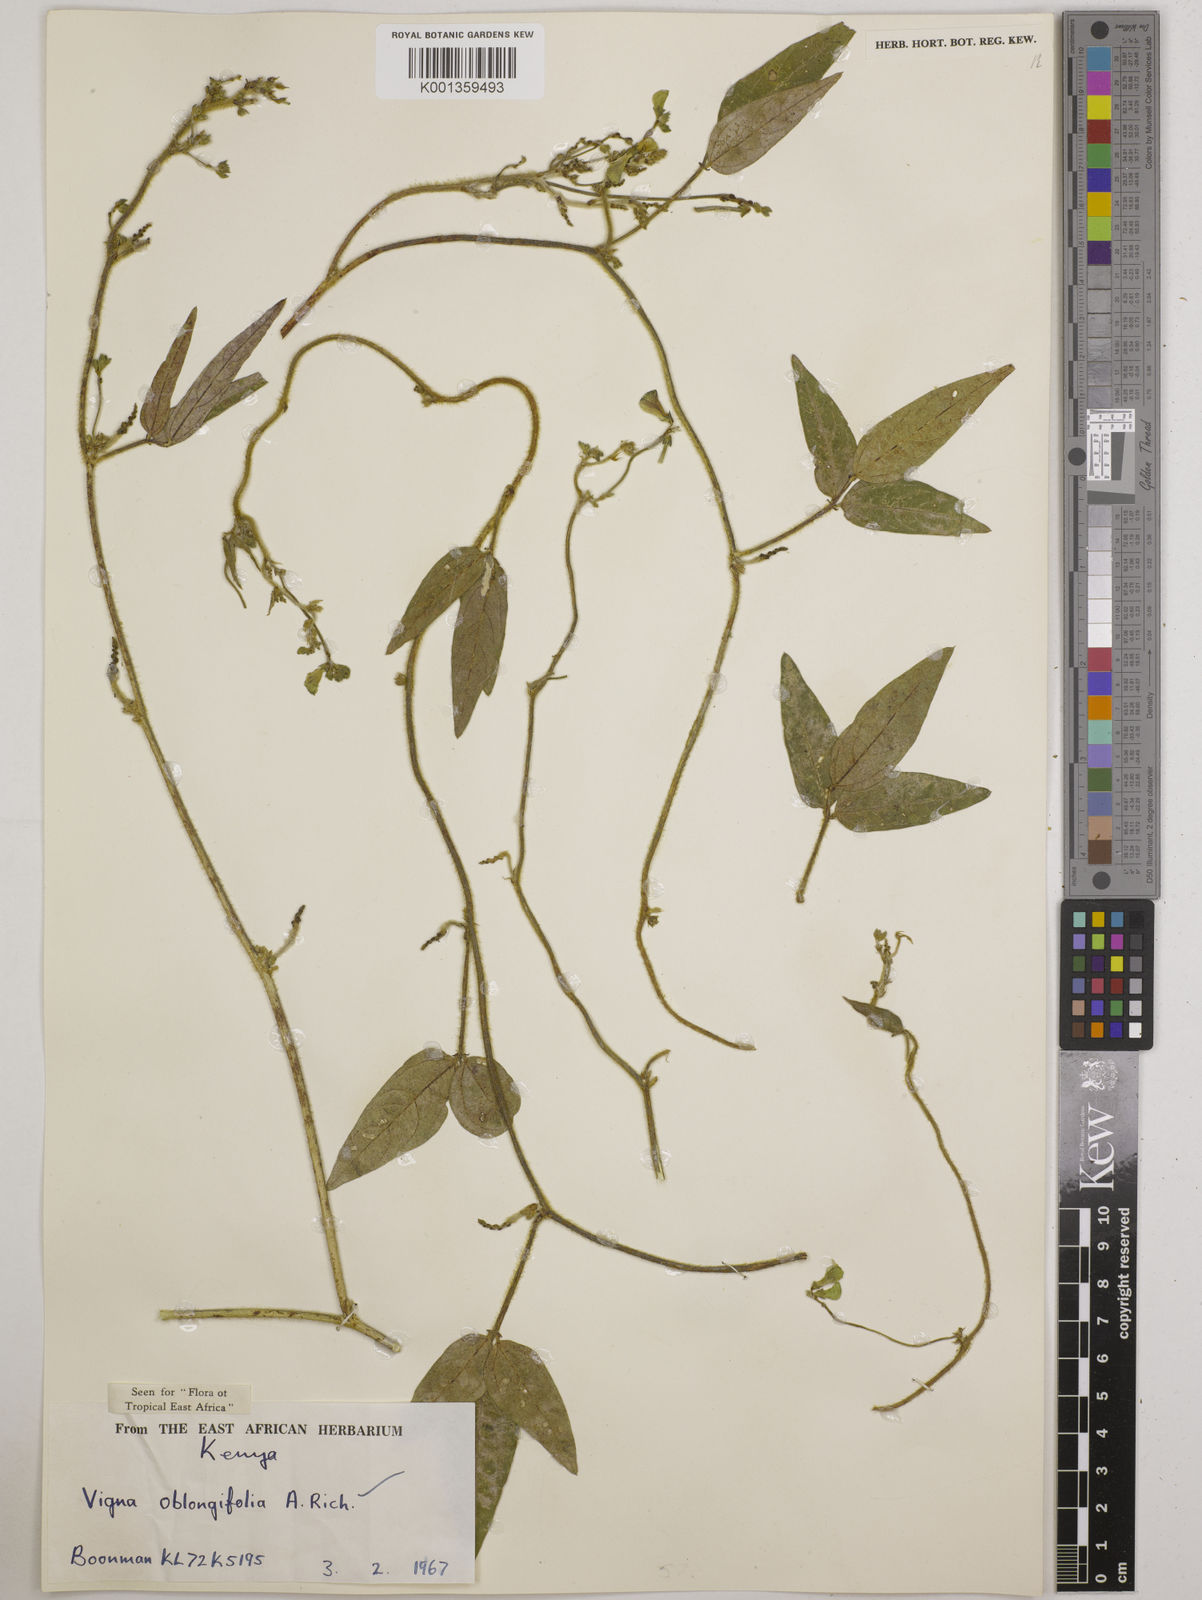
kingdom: Plantae
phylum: Tracheophyta
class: Magnoliopsida
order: Fabales
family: Fabaceae
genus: Vigna
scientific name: Vigna oblongifolia
